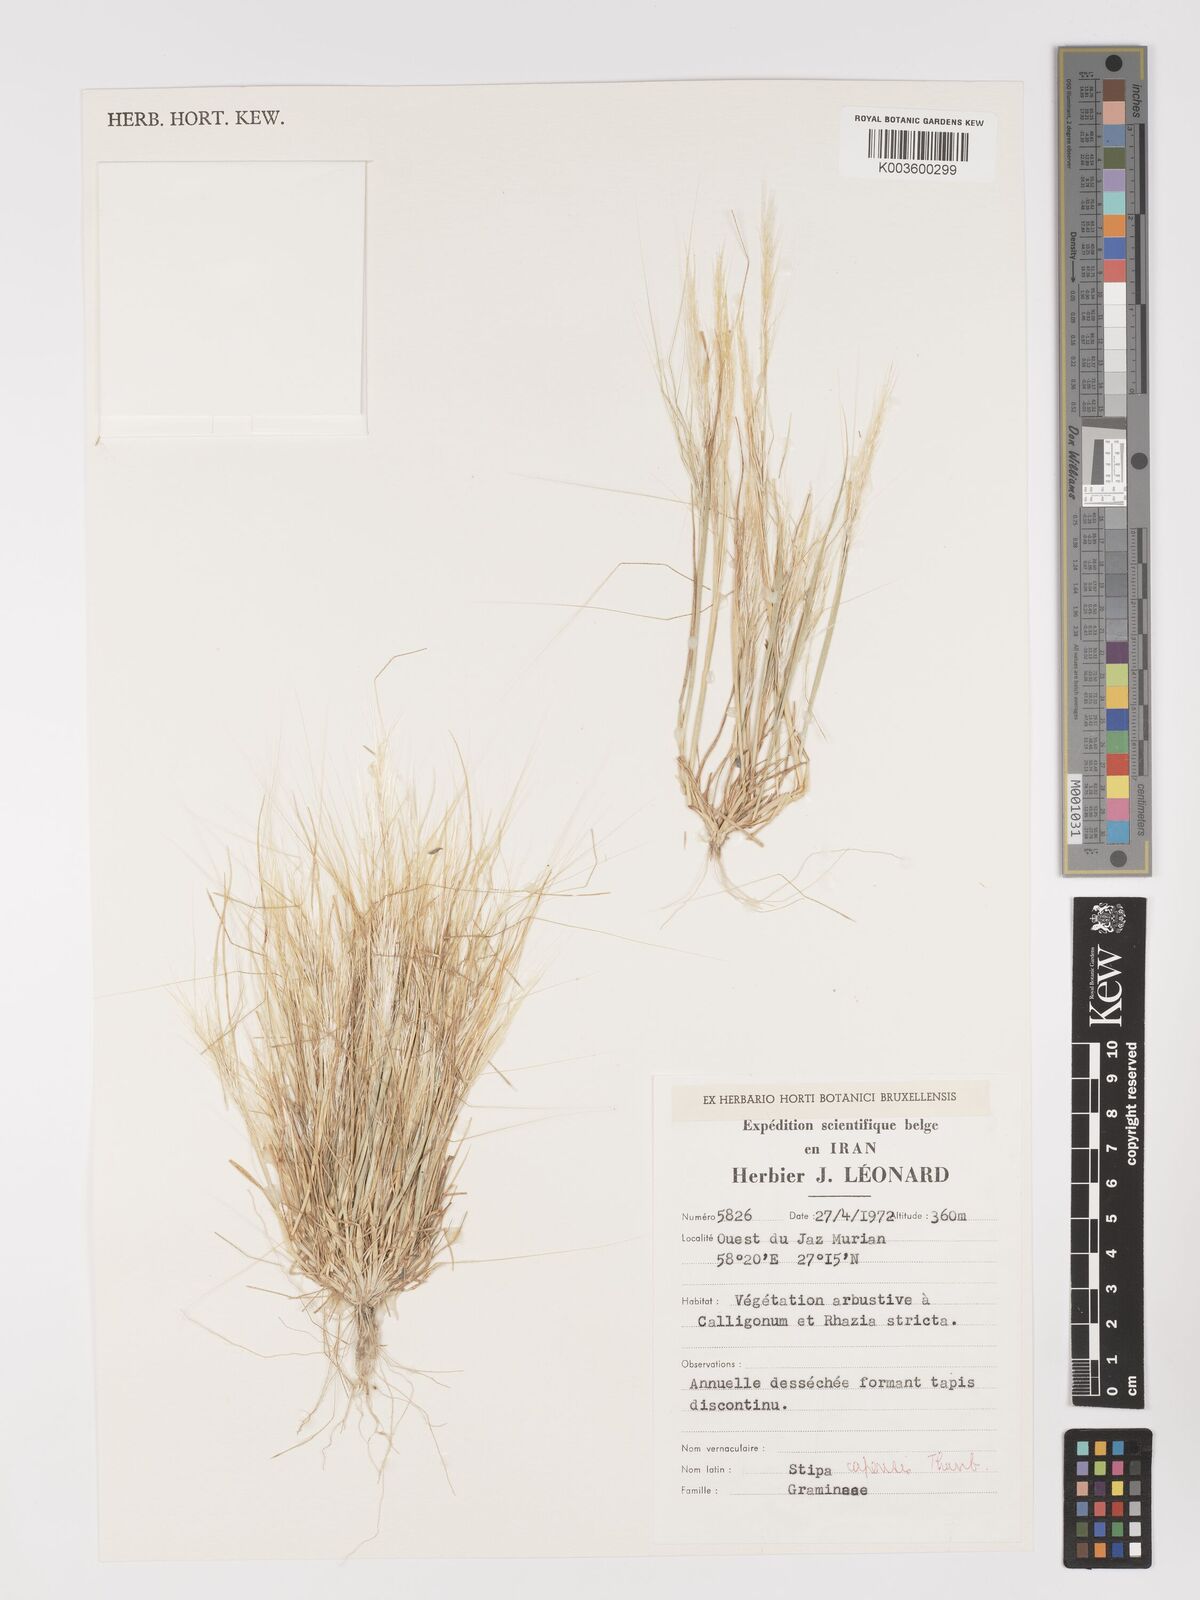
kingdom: Plantae
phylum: Tracheophyta
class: Liliopsida
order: Poales
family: Poaceae
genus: Stipellula
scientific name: Stipellula capensis
